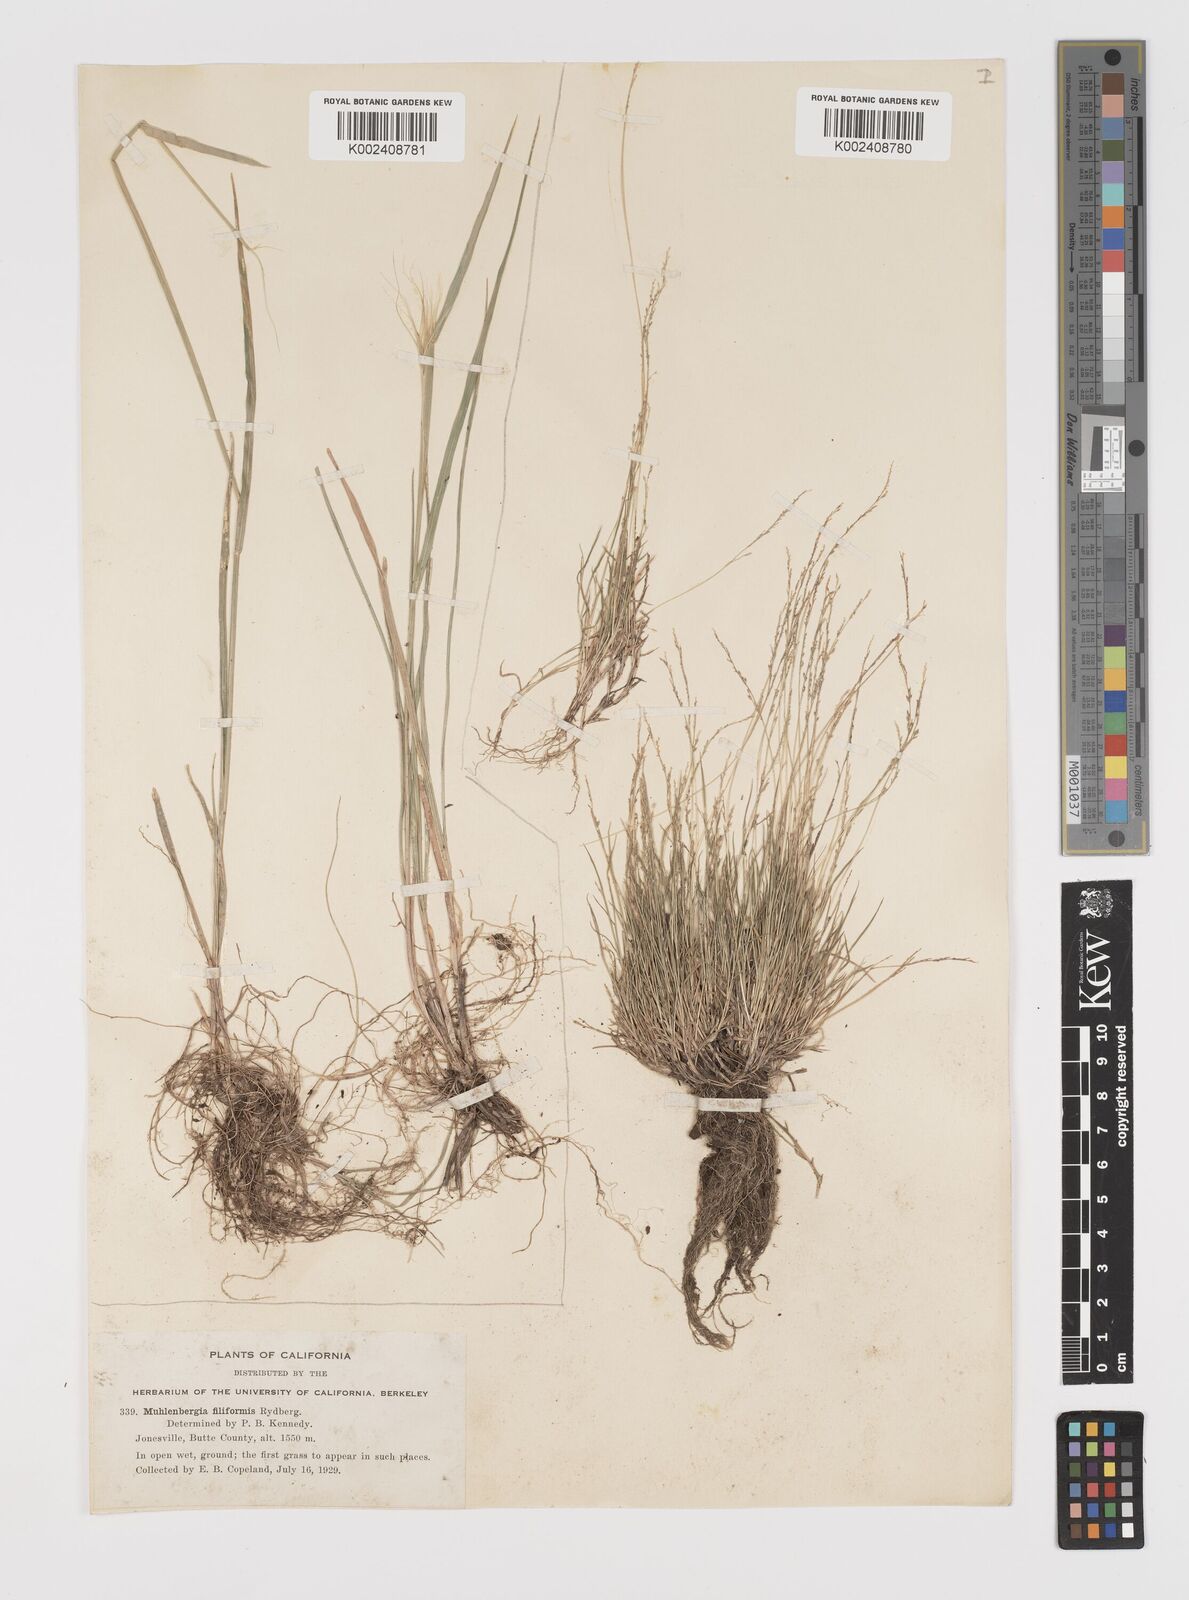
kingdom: Plantae
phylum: Tracheophyta
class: Liliopsida
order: Poales
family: Poaceae
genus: Leptochloa
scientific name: Leptochloa mucronata
